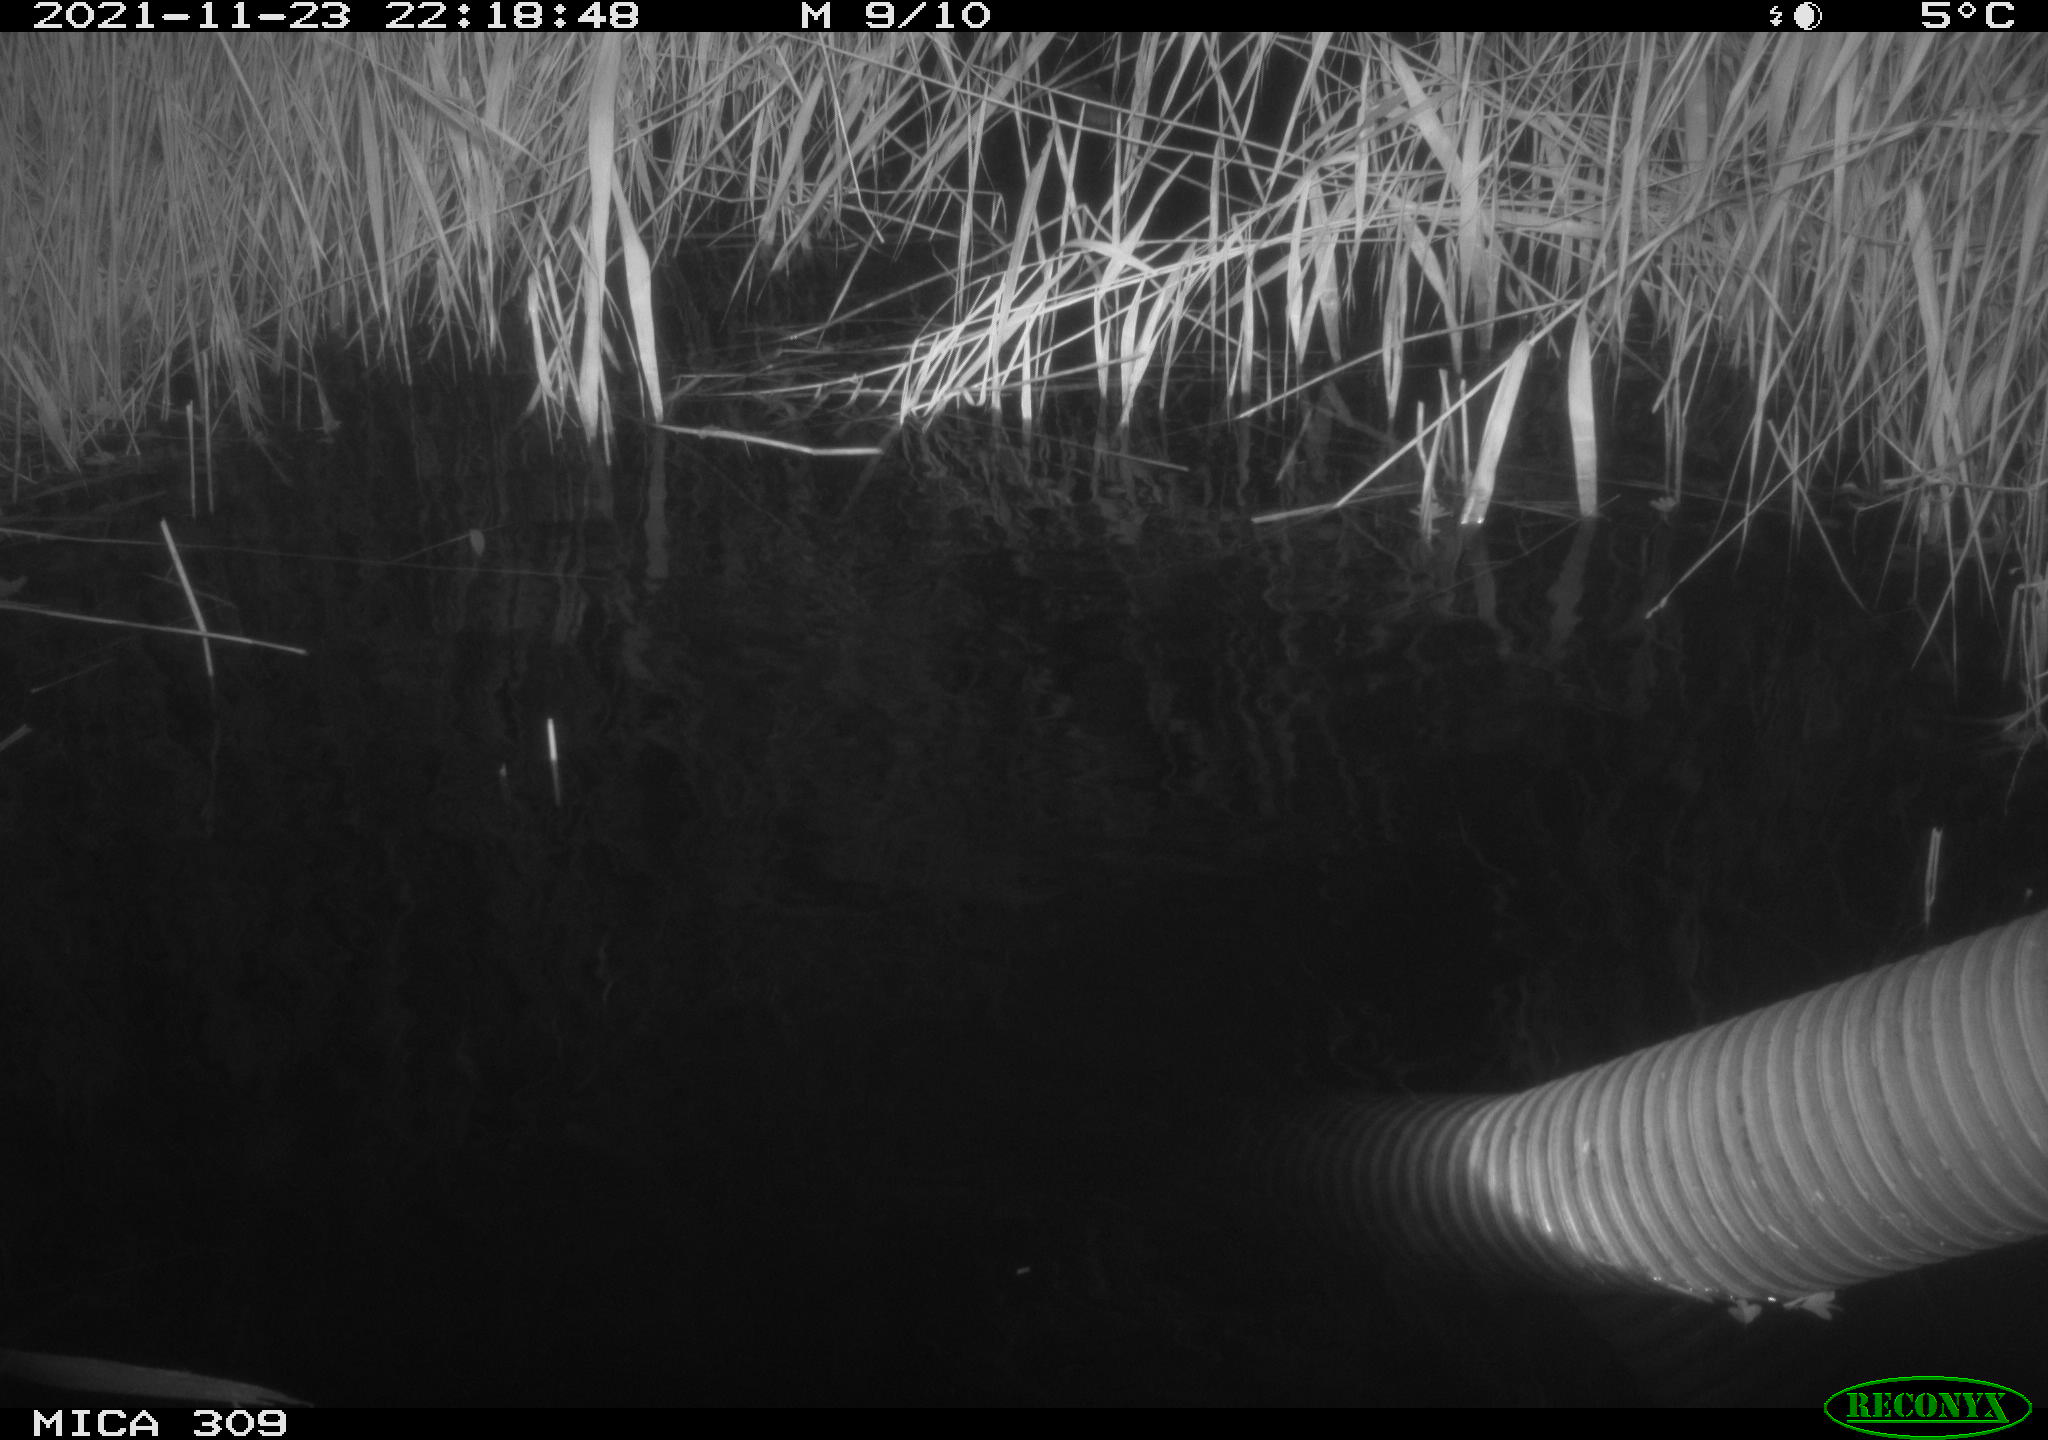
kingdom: Animalia
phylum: Chordata
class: Mammalia
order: Rodentia
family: Muridae
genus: Rattus
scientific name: Rattus norvegicus
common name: Brown rat
